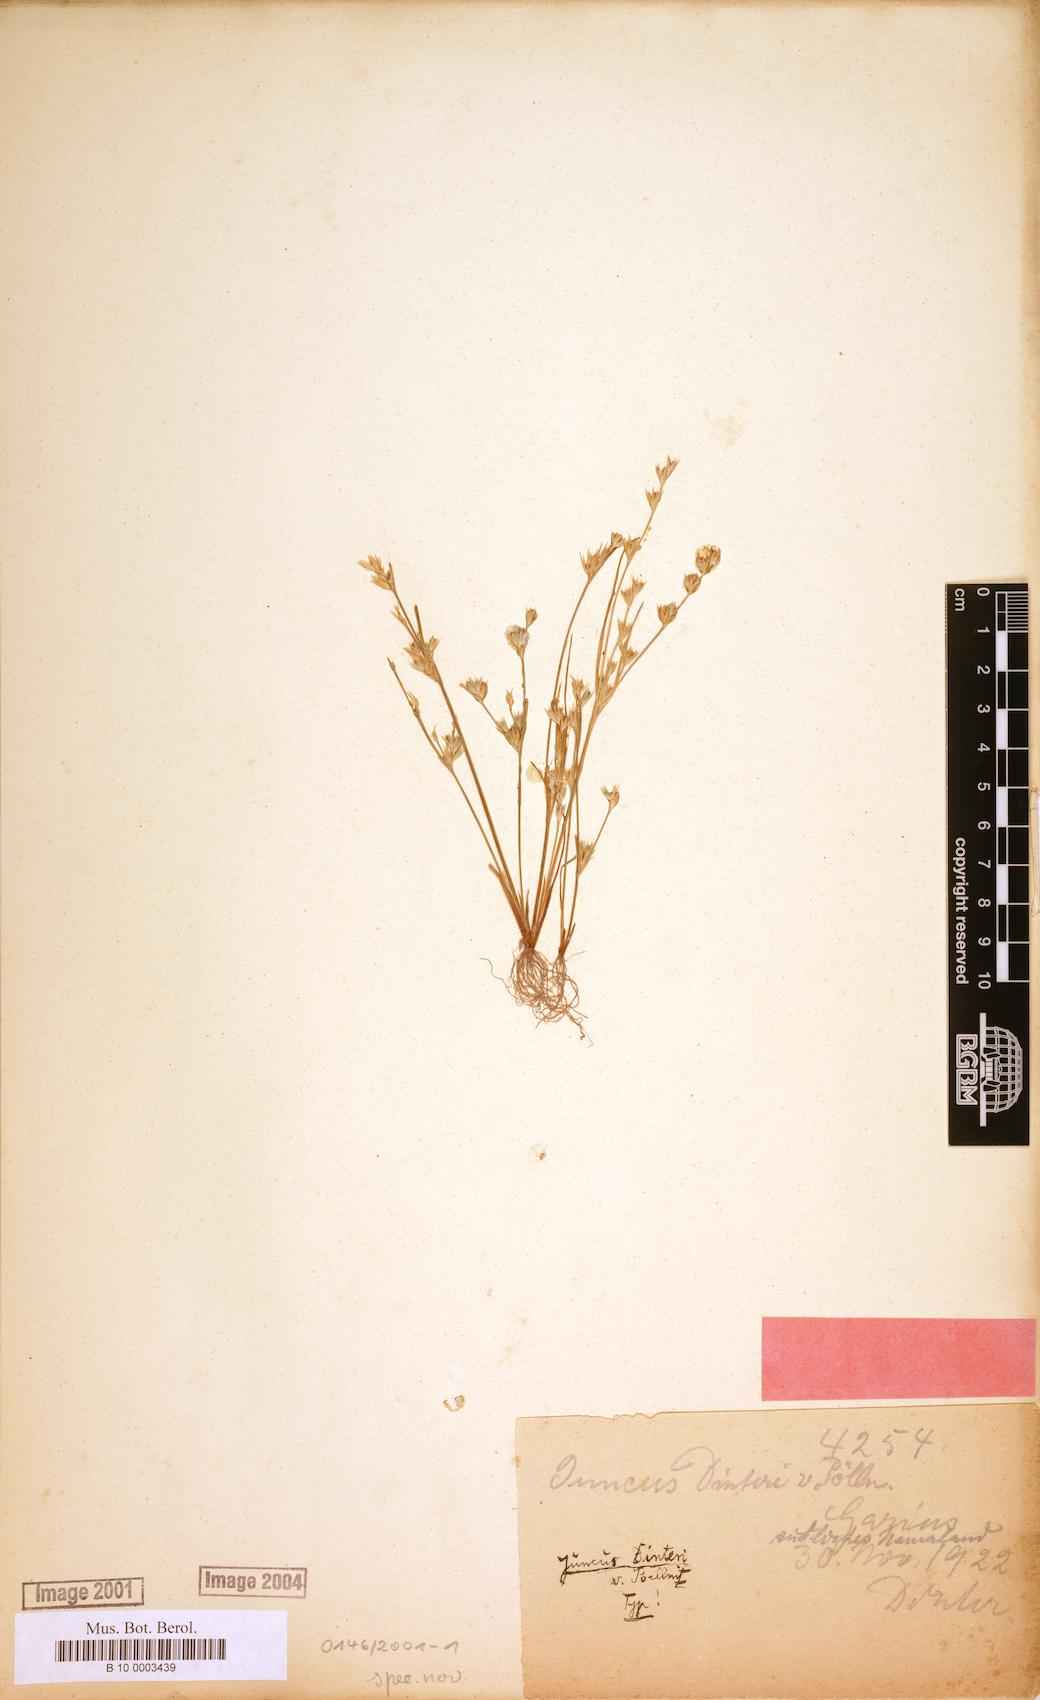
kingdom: Plantae
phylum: Tracheophyta
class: Liliopsida
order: Poales
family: Juncaceae
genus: Juncus
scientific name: Juncus hybridus
